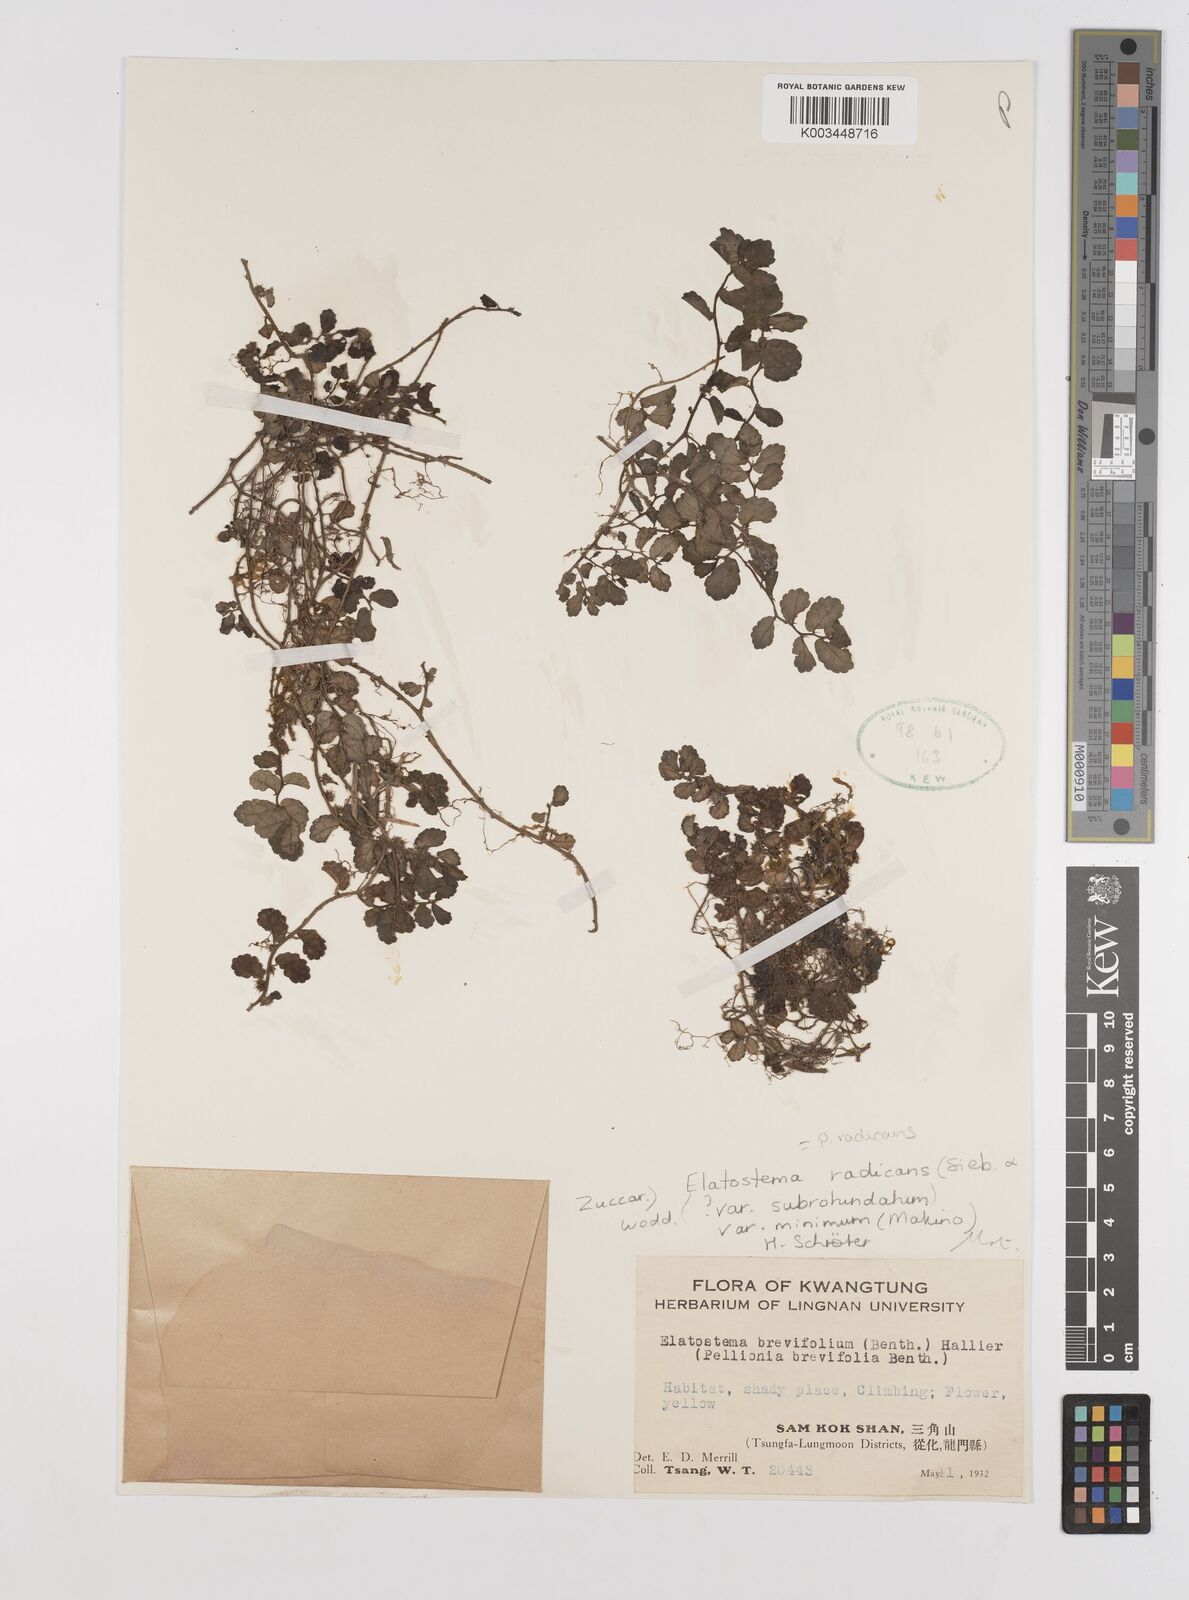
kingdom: Plantae
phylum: Tracheophyta
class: Magnoliopsida
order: Rosales
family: Urticaceae
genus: Elatostema
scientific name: Elatostema radicans
